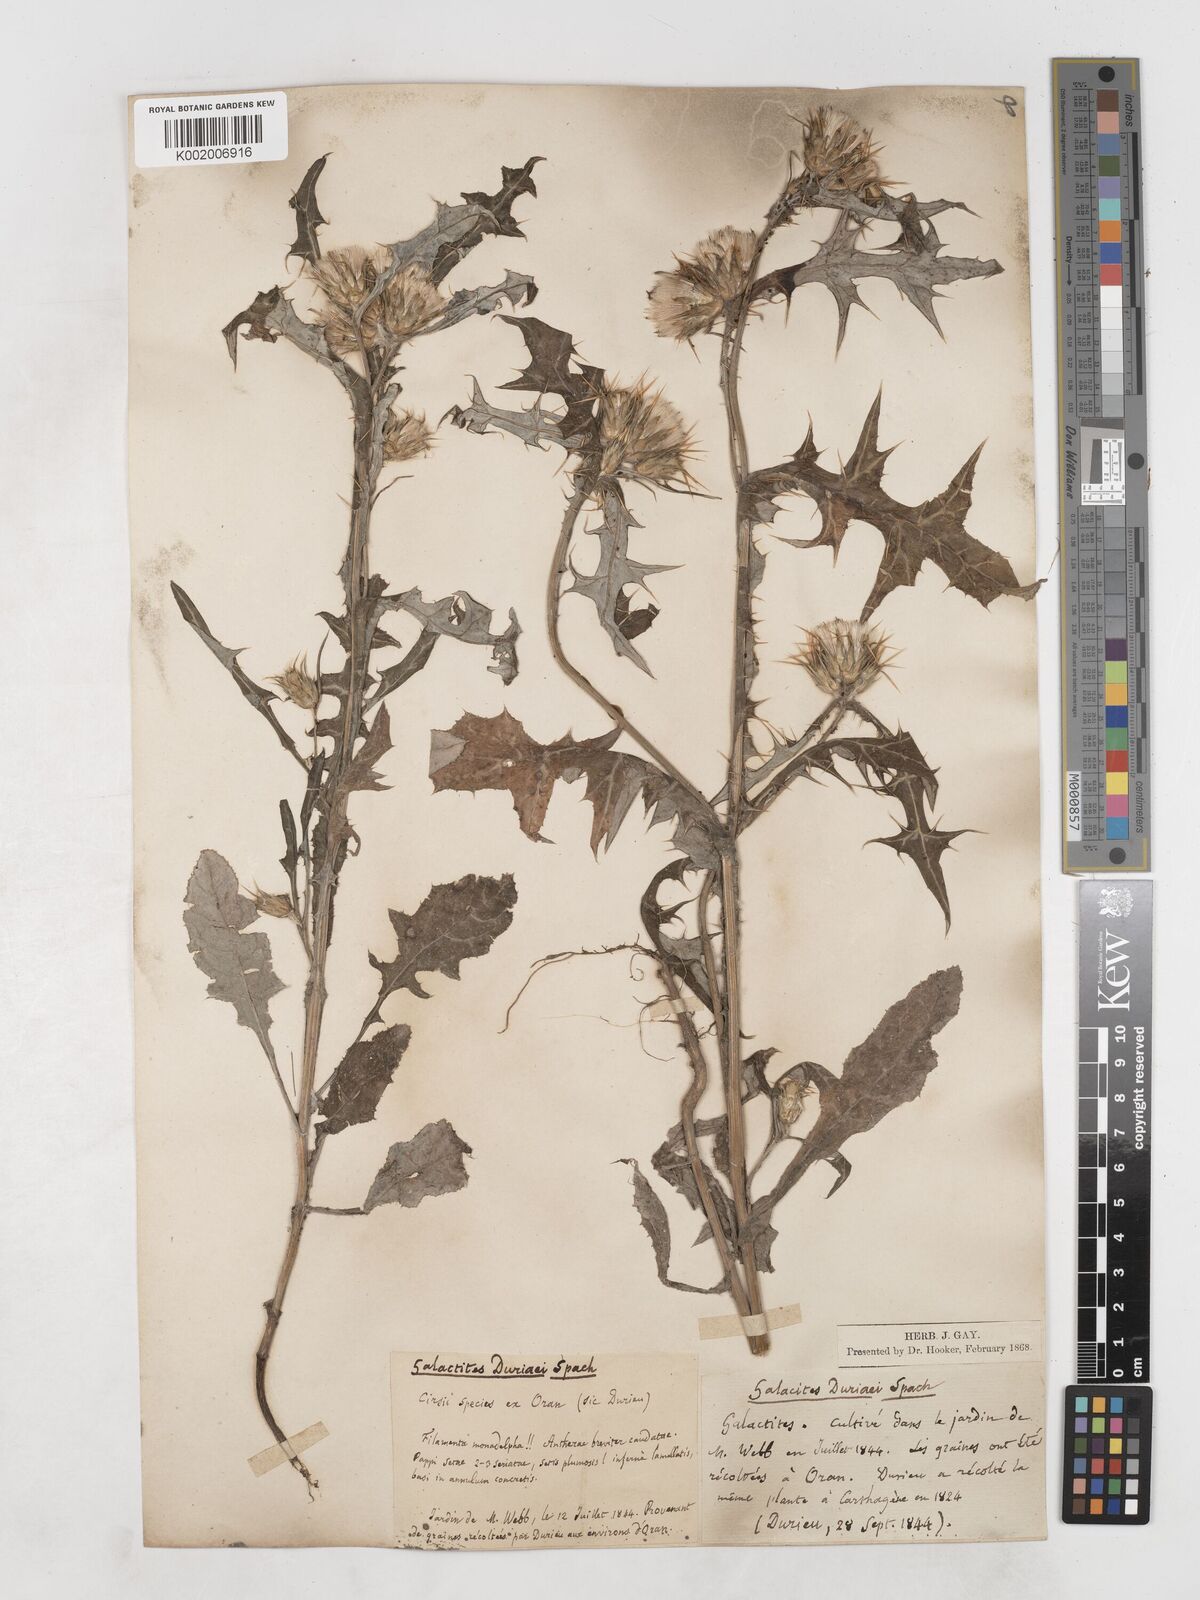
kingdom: Plantae
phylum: Tracheophyta
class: Magnoliopsida
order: Asterales
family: Asteraceae
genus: Galactites
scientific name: Galactites duriaei
